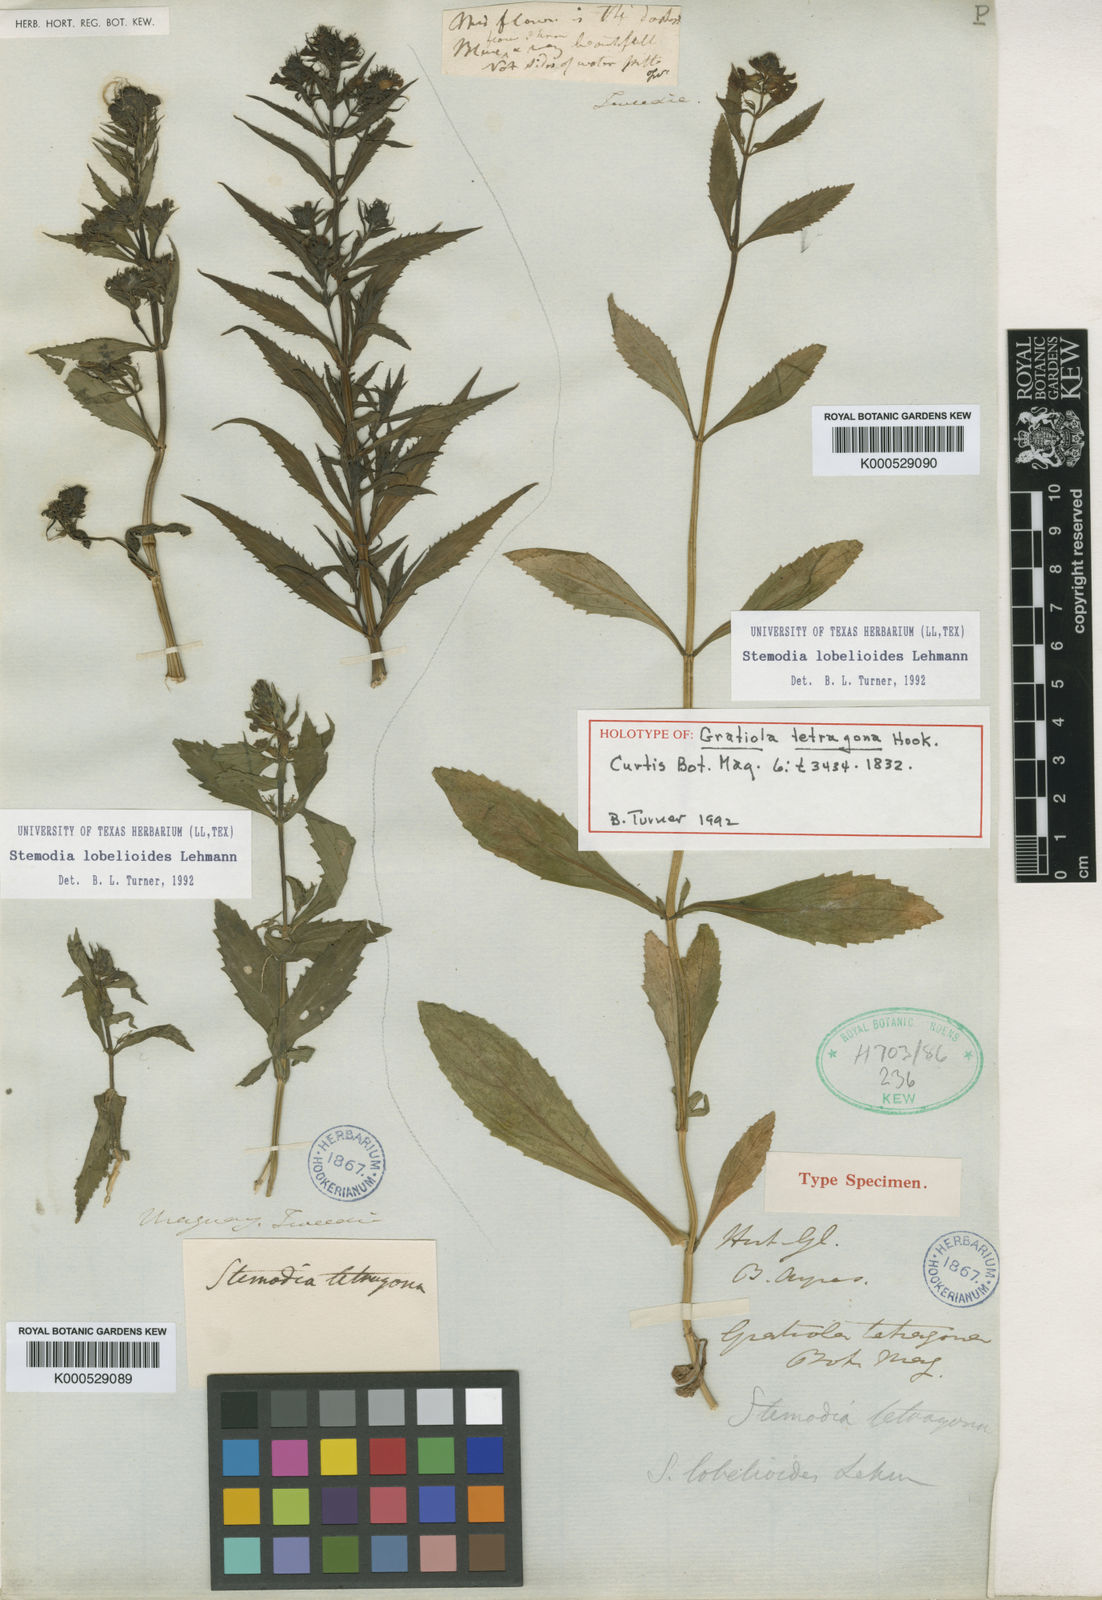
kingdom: Plantae
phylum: Tracheophyta
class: Magnoliopsida
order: Lamiales
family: Plantaginaceae
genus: Stemodia
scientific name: Stemodia lobelioides
